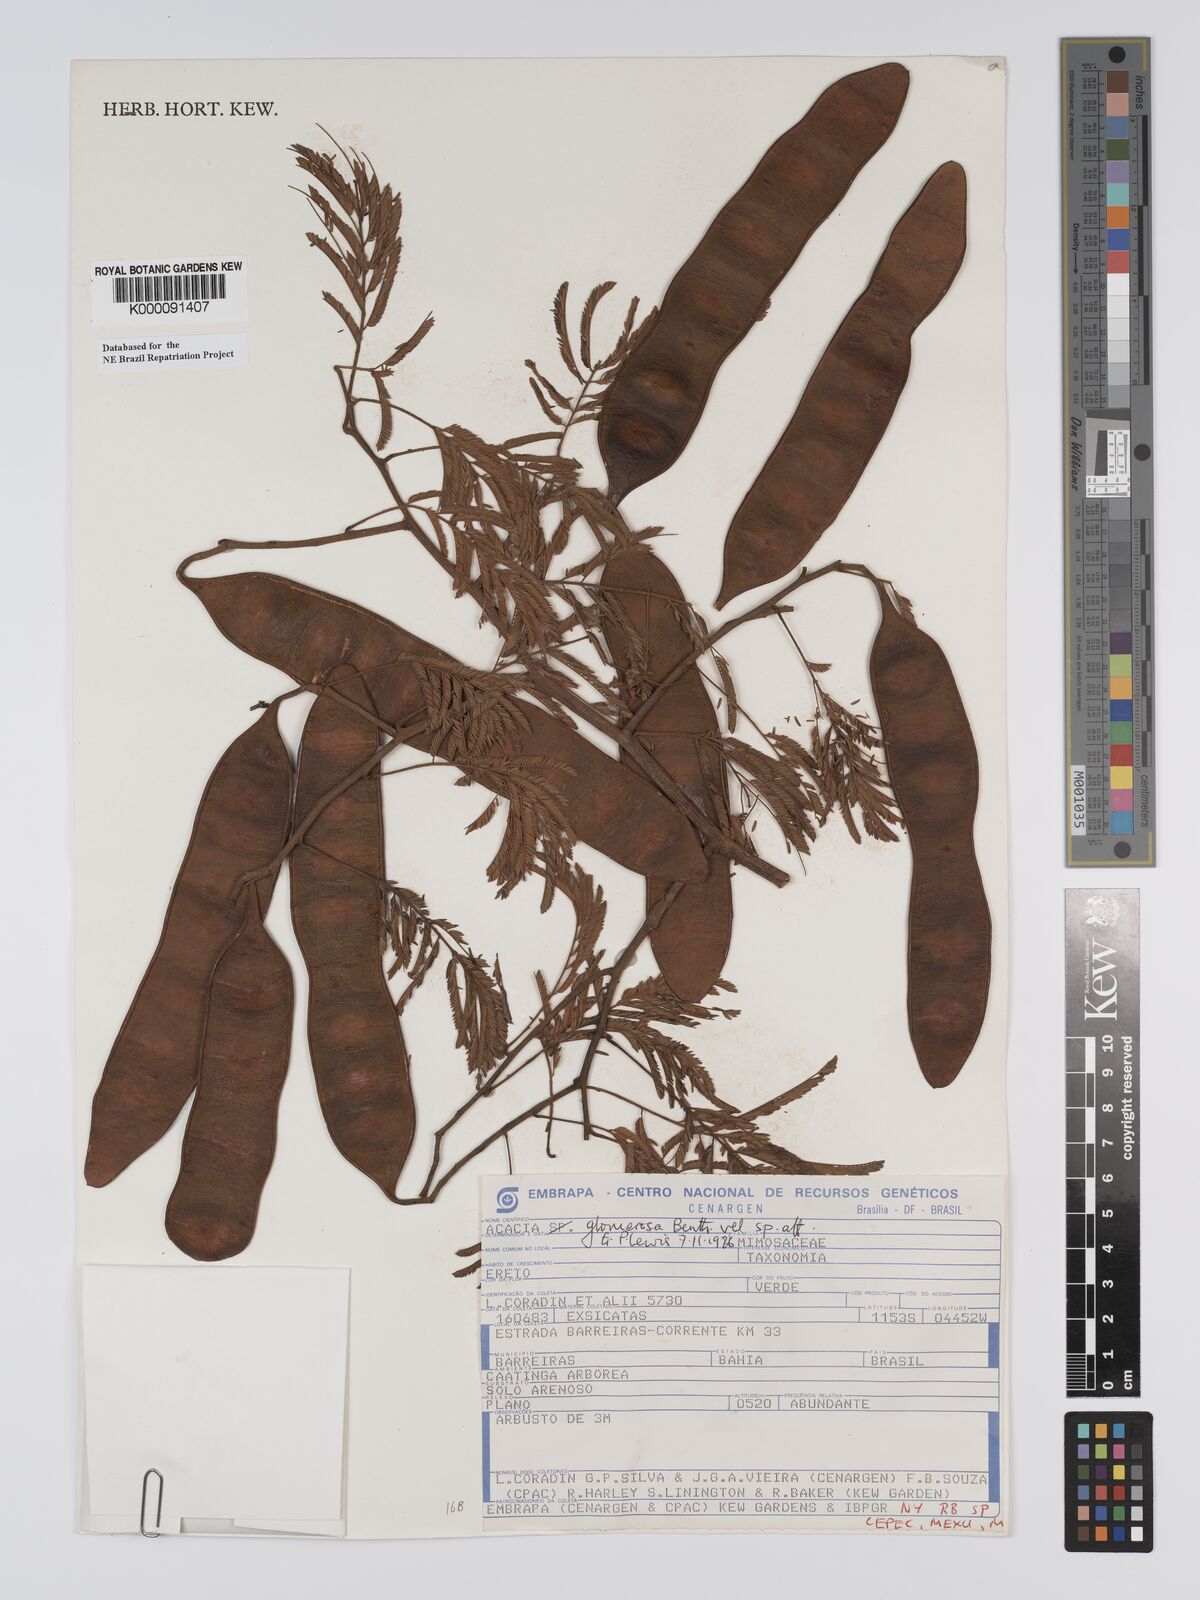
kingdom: Plantae
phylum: Tracheophyta
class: Magnoliopsida
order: Fabales
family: Fabaceae
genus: Senegalia
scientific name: Senegalia polyphylla
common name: White-tamarind
